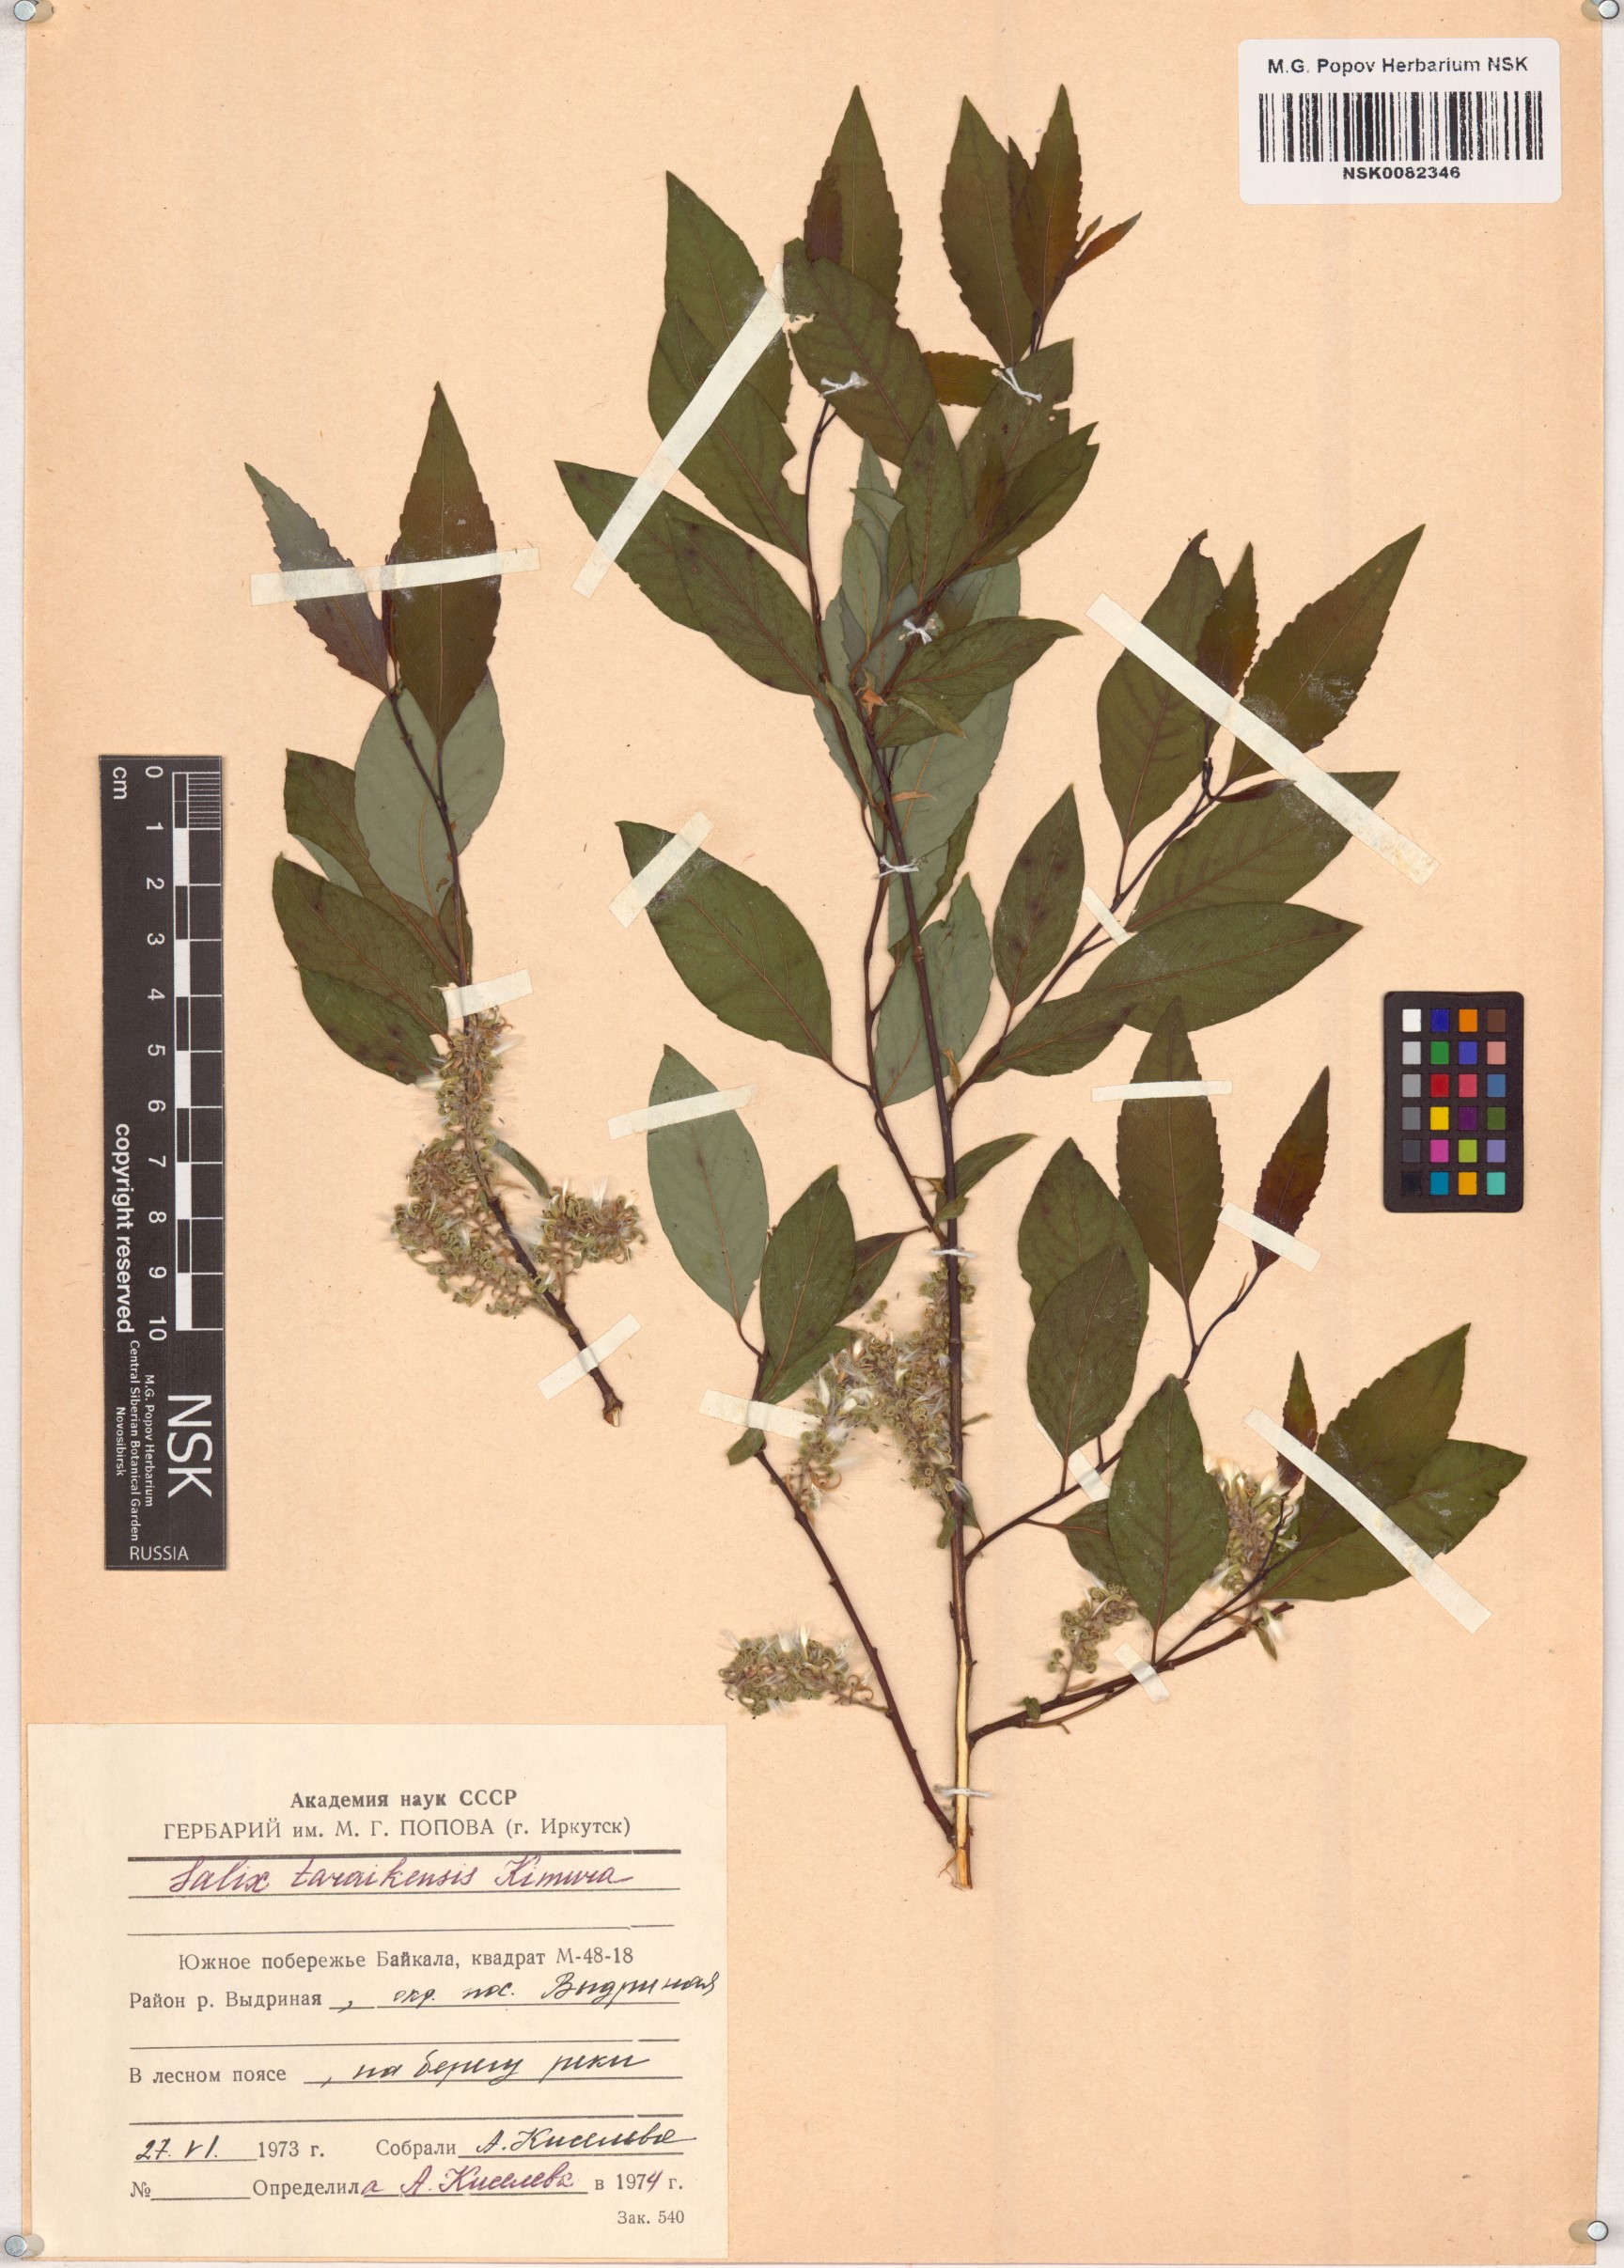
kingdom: Plantae
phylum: Tracheophyta
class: Magnoliopsida
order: Malpighiales
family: Salicaceae
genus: Salix
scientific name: Salix taraikensis
